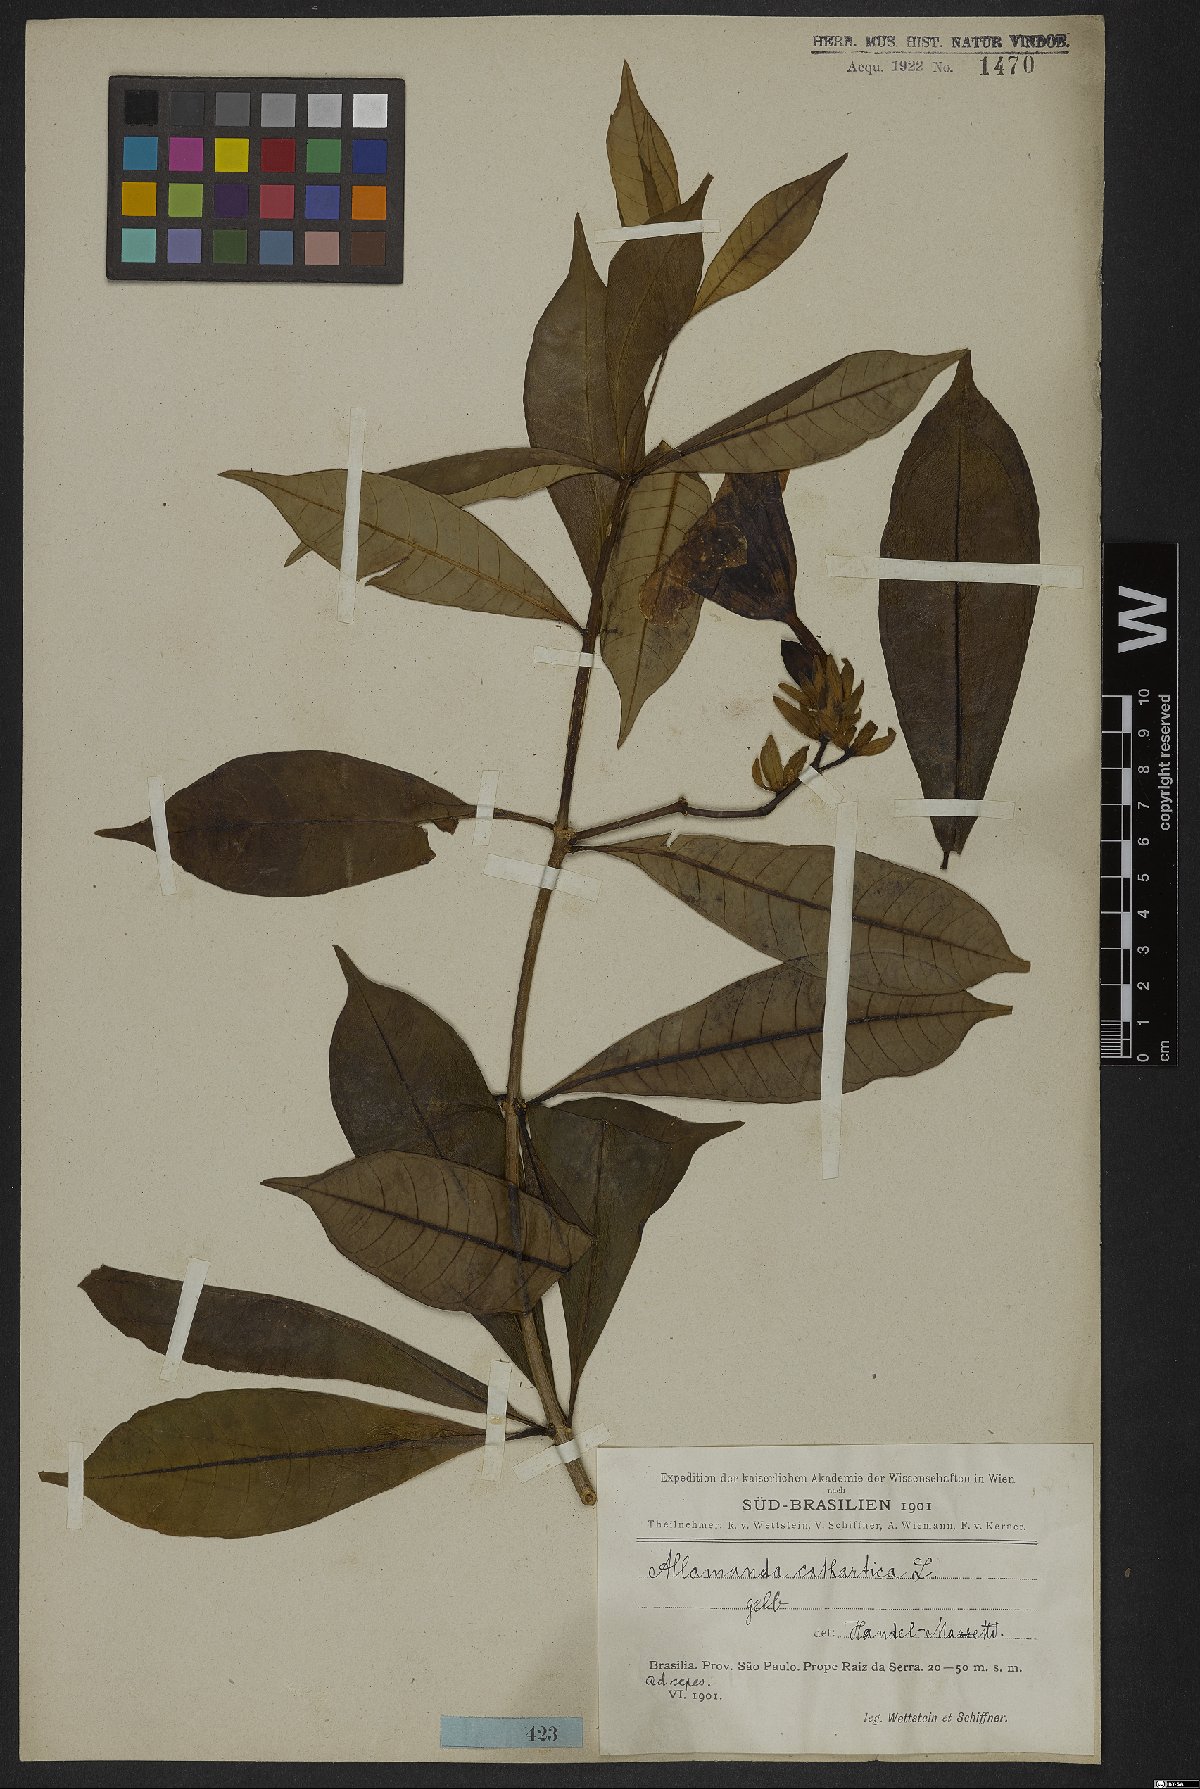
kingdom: Plantae
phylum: Tracheophyta
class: Magnoliopsida
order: Gentianales
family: Apocynaceae
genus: Allamanda
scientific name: Allamanda cathartica
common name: Golden trumpet
